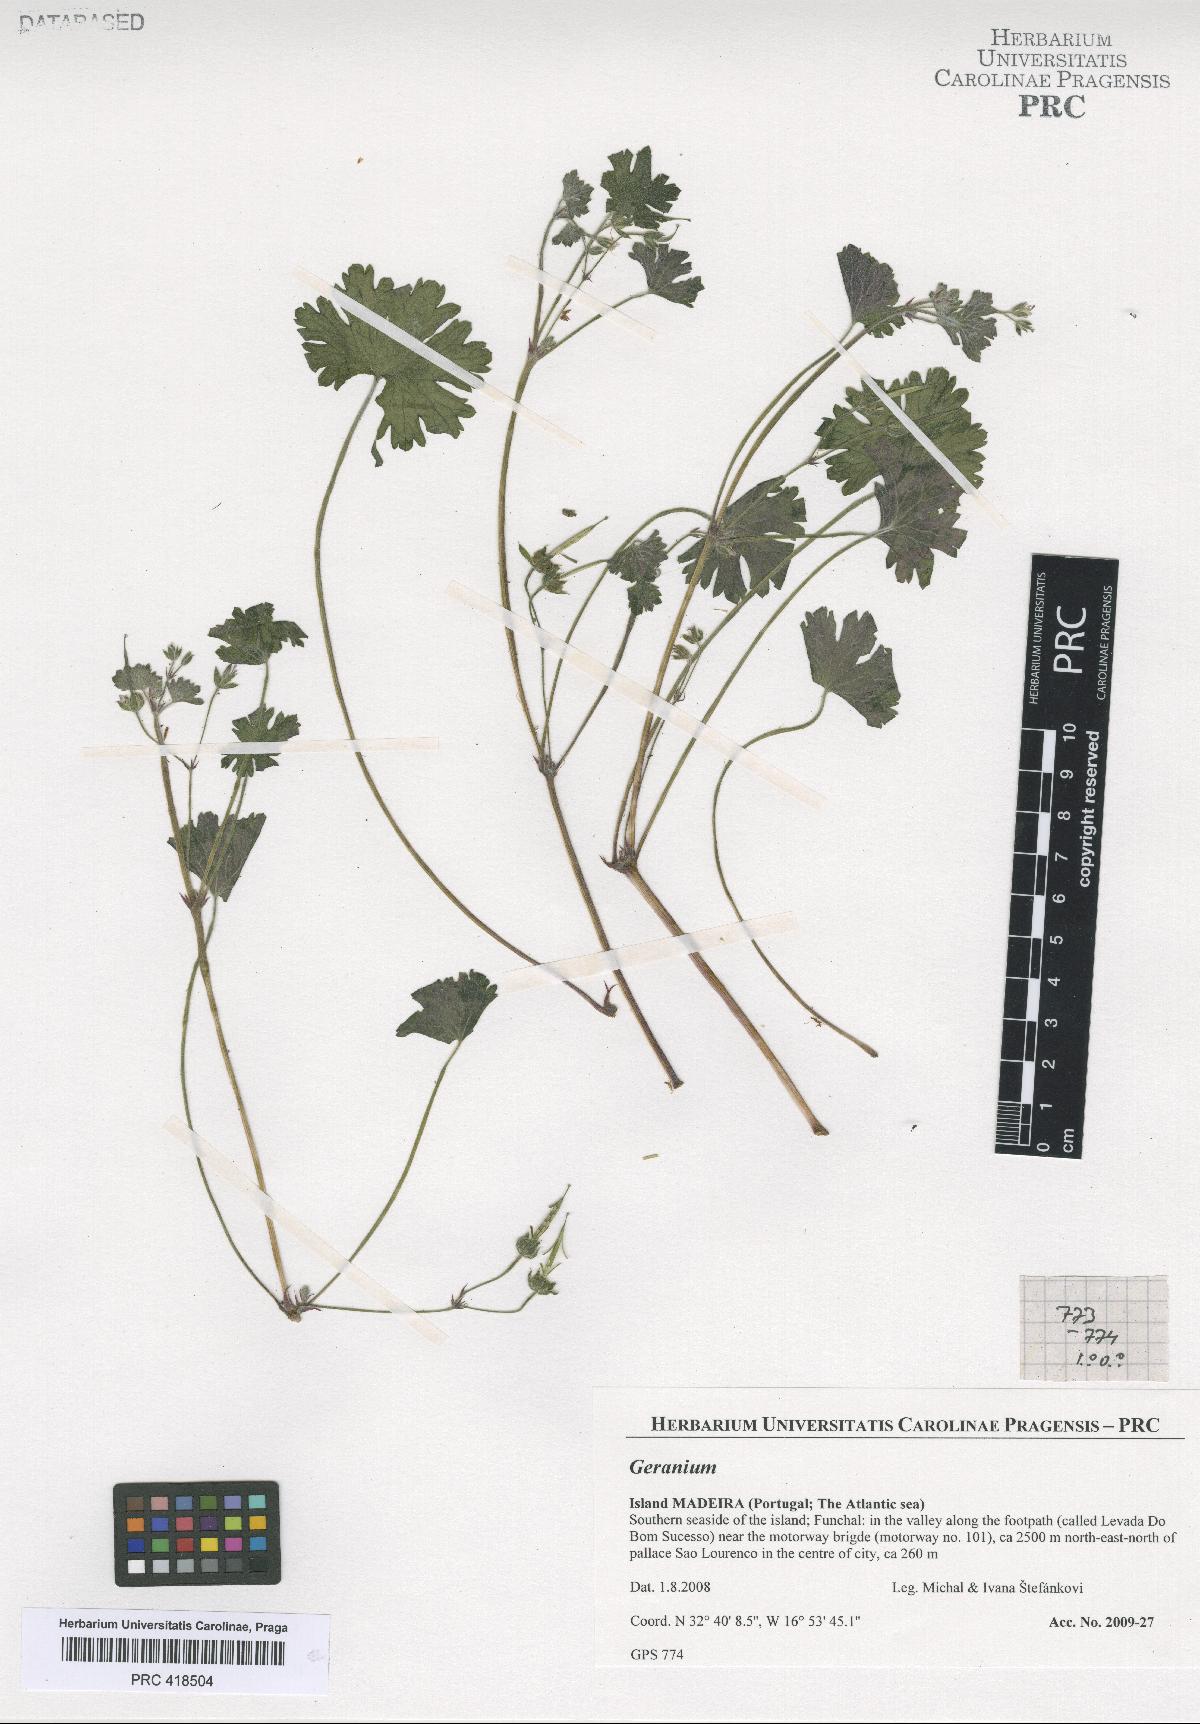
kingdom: Plantae
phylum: Tracheophyta
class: Magnoliopsida
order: Geraniales
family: Geraniaceae
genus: Geranium
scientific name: Geranium rotundifolium
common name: Round-leaved crane's-bill
